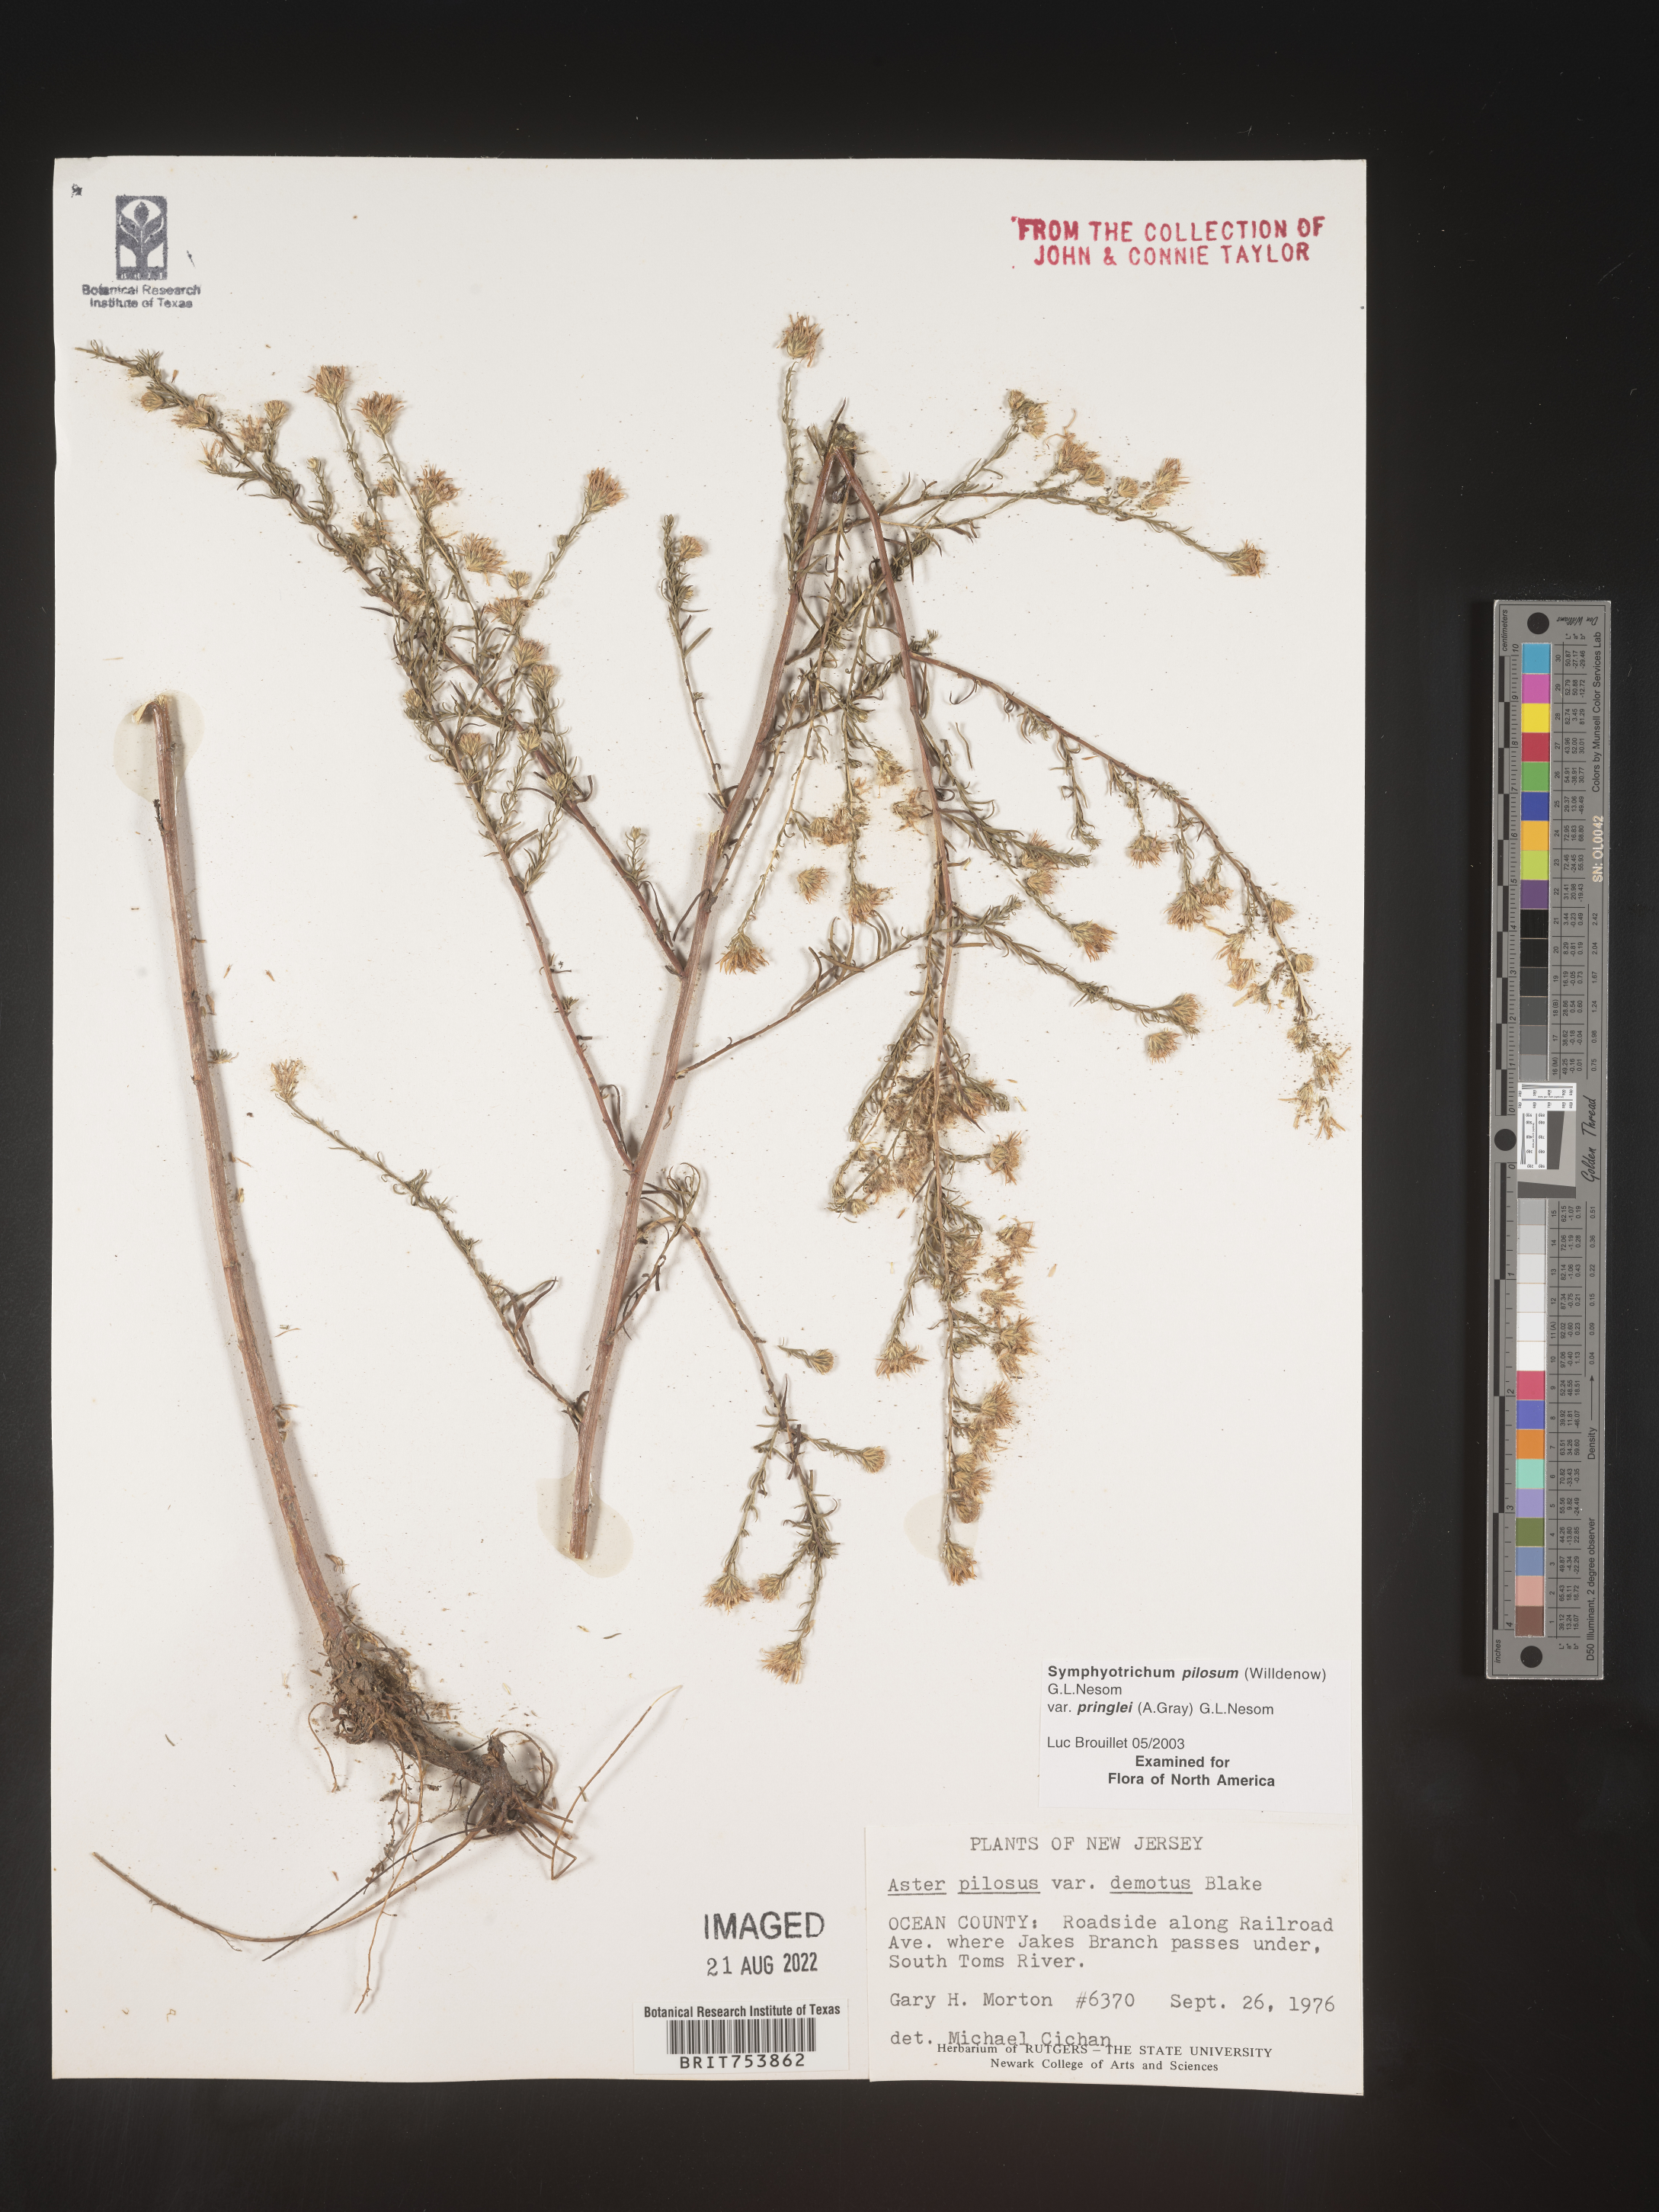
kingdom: Plantae
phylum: Tracheophyta
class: Magnoliopsida
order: Asterales
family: Asteraceae
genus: Symphyotrichum
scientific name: Symphyotrichum pilosum
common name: Awl aster
